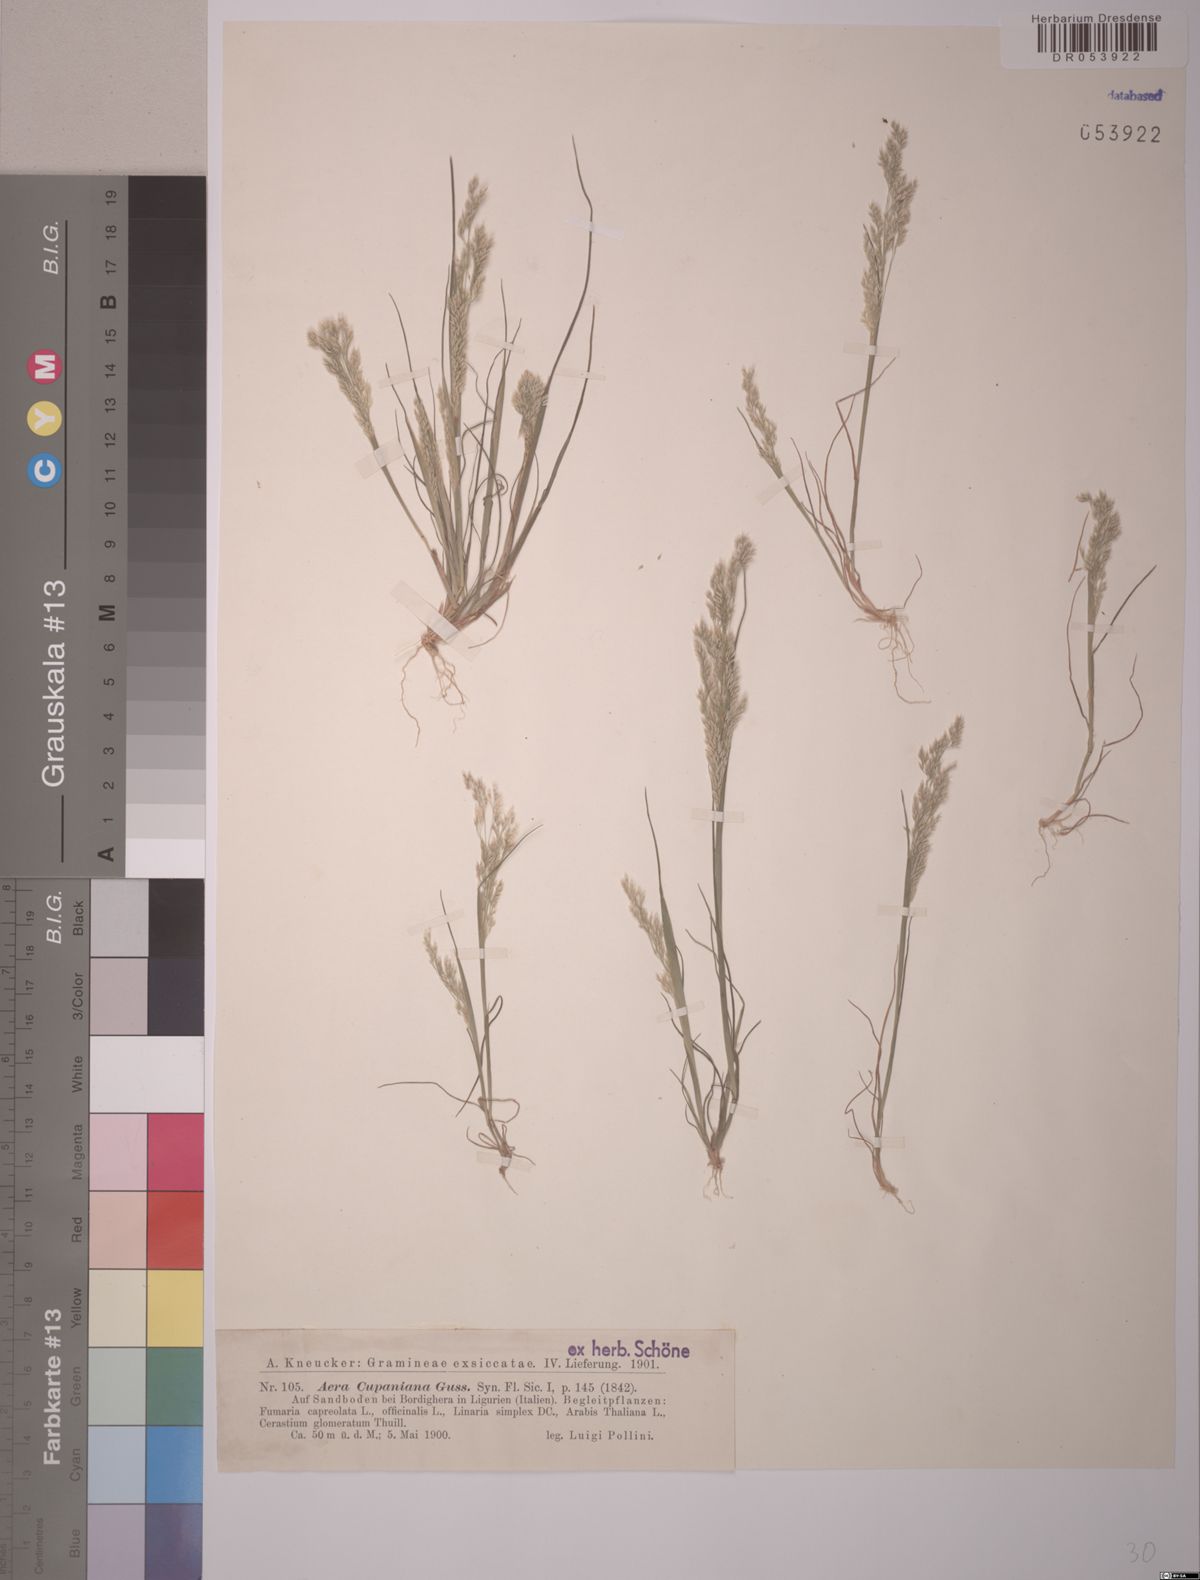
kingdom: Plantae
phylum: Tracheophyta
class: Liliopsida
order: Poales
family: Poaceae
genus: Aira
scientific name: Aira cupaniana
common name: Silver hairgrass
